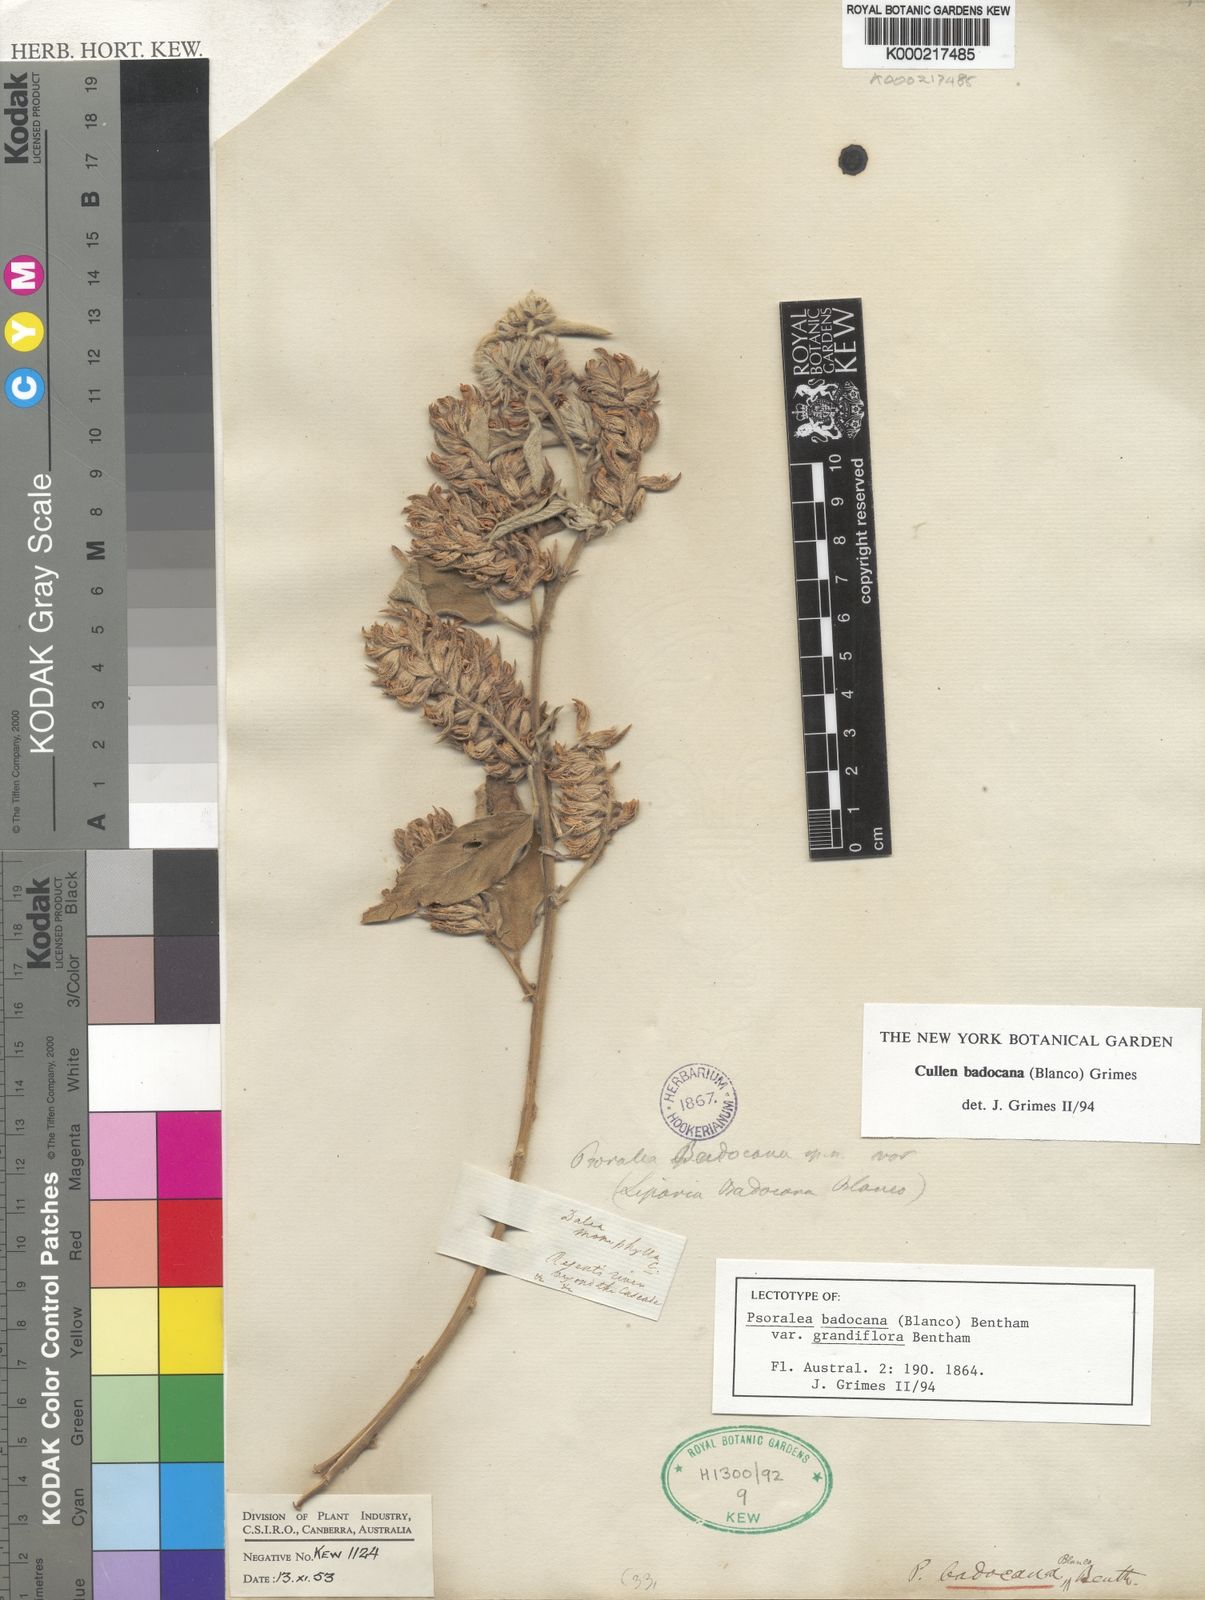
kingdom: Plantae
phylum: Tracheophyta
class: Magnoliopsida
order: Fabales
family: Fabaceae
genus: Cullen
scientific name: Cullen
